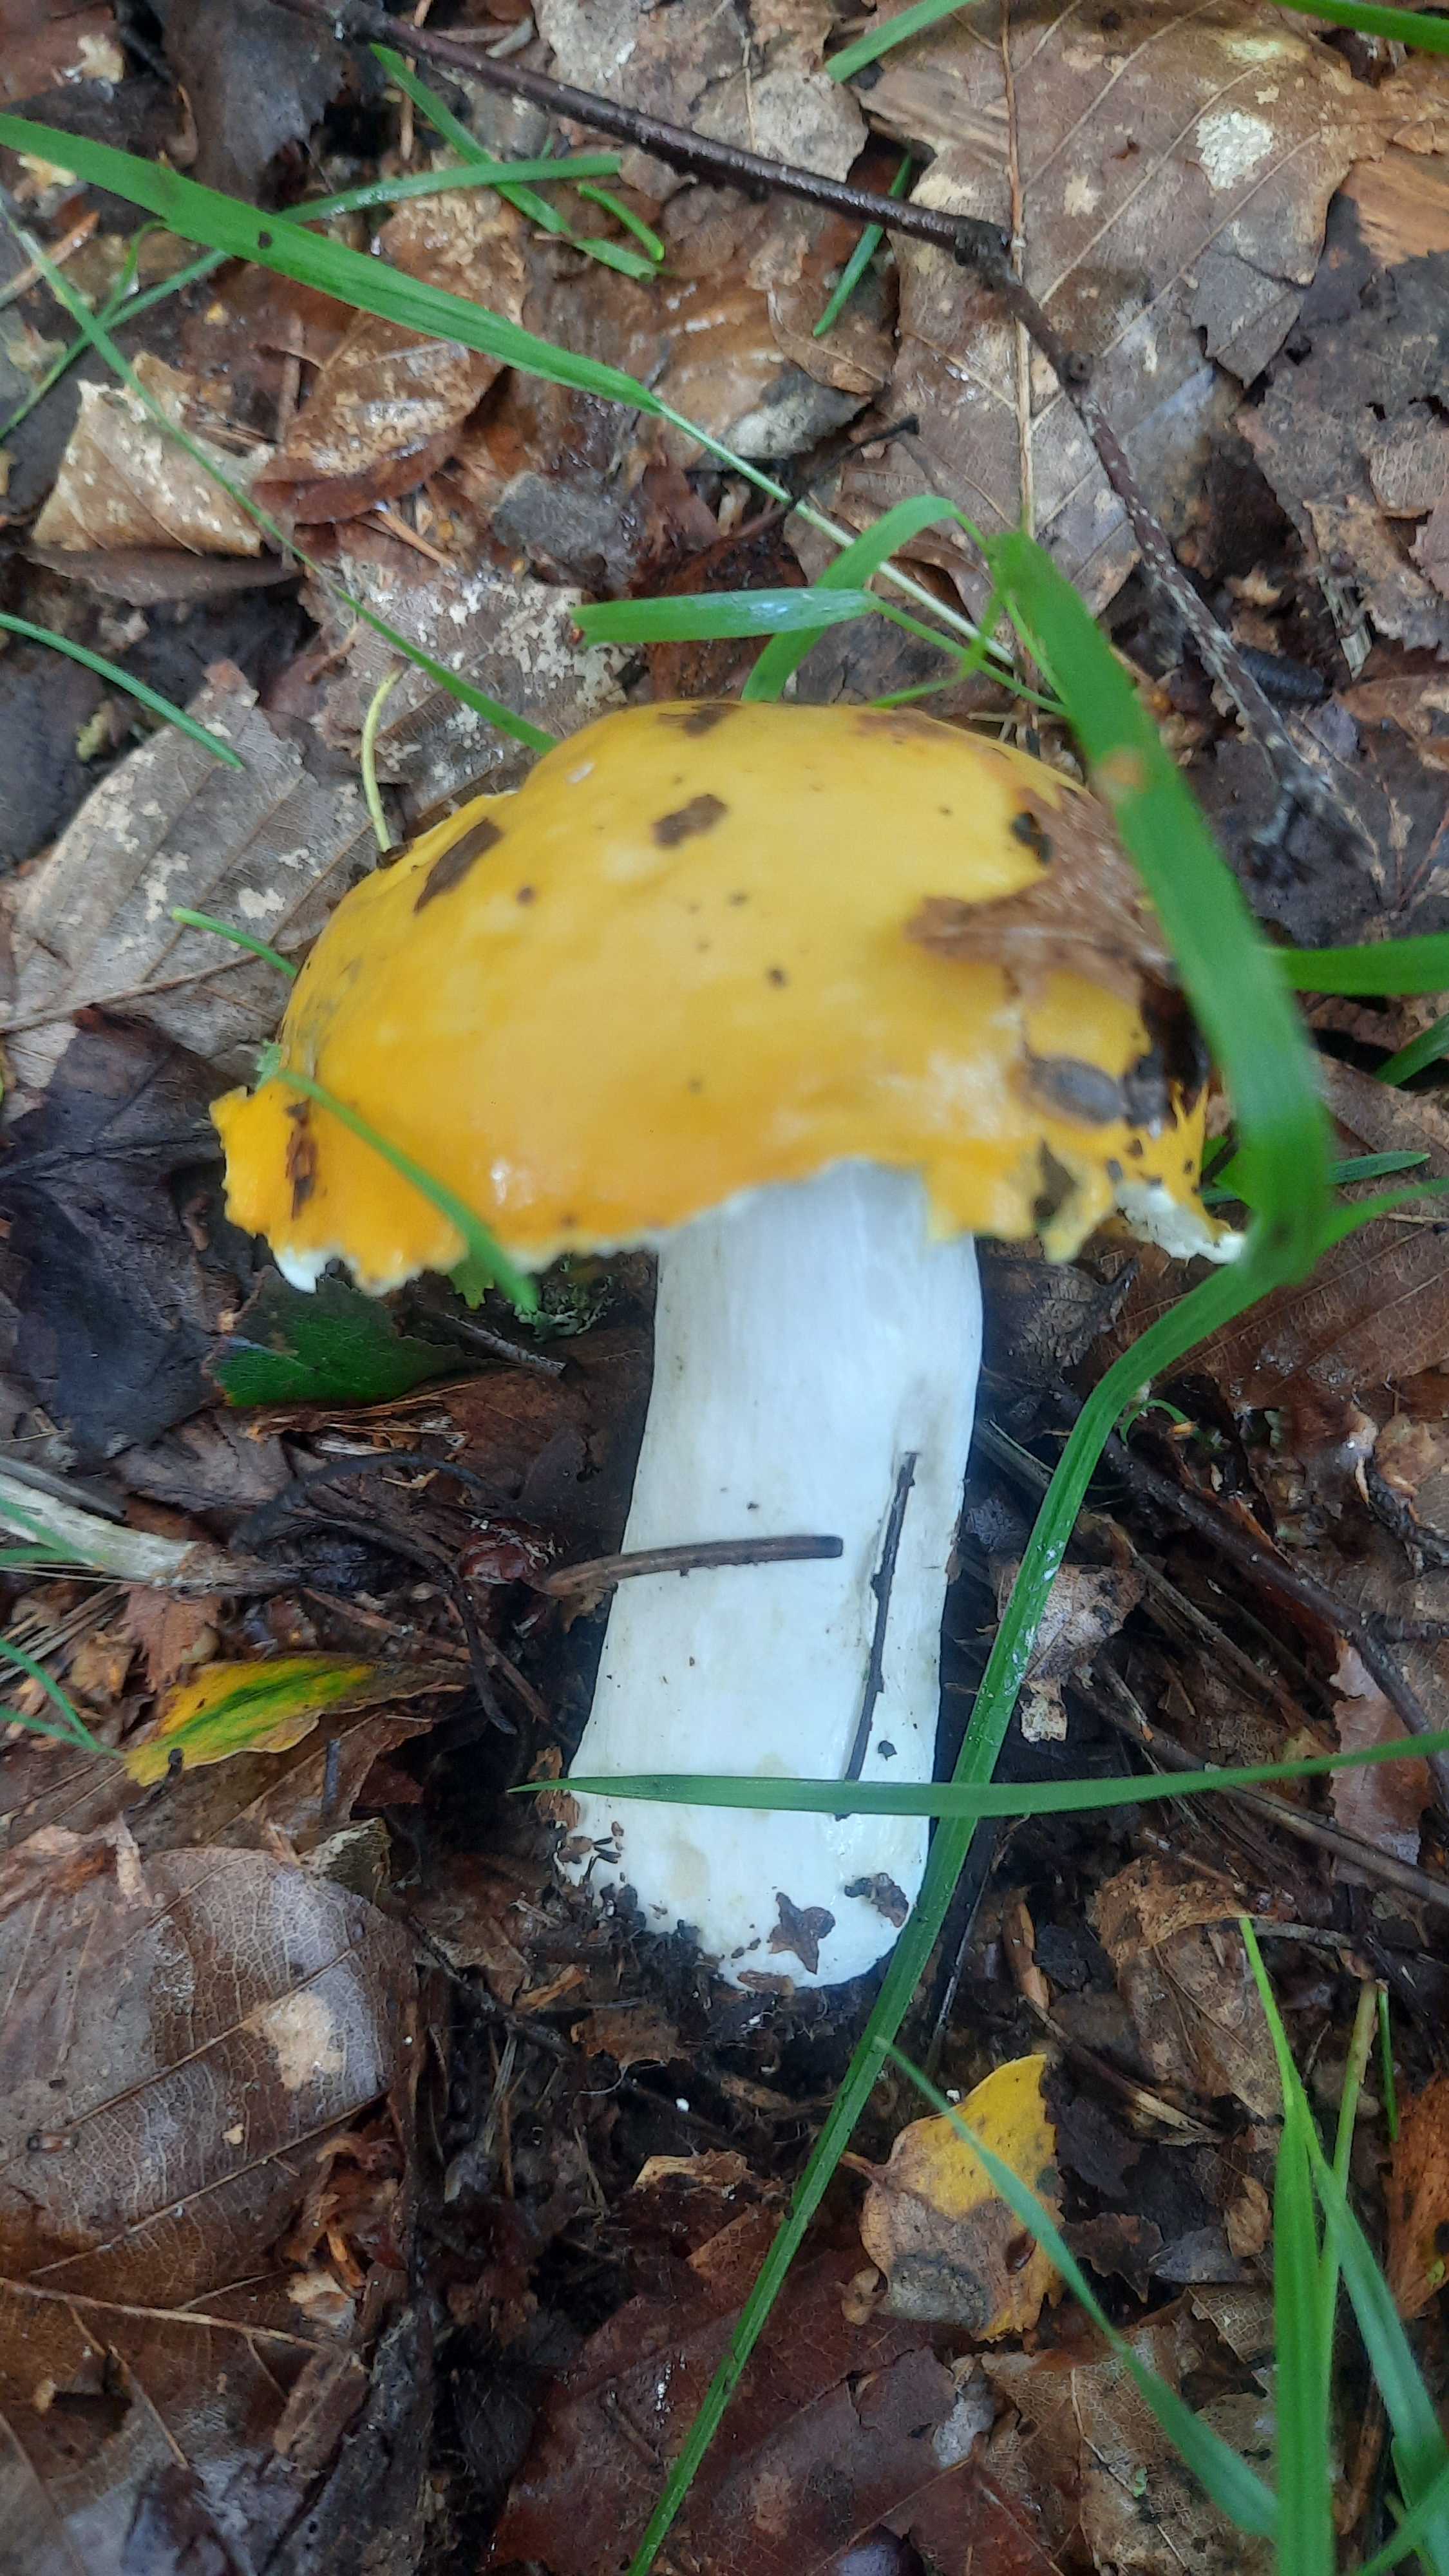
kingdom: Fungi
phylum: Basidiomycota
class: Agaricomycetes
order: Russulales
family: Russulaceae
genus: Russula
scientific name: Russula claroflava
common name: birke-skørhat
